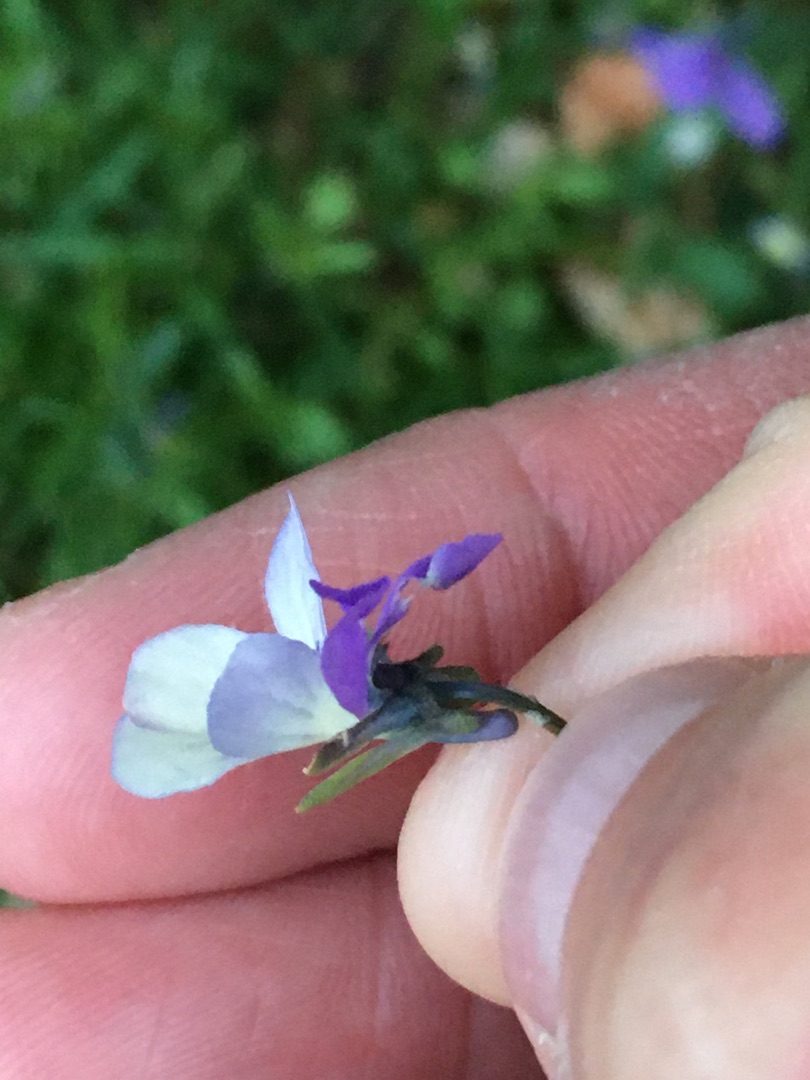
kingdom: Plantae
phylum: Tracheophyta
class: Magnoliopsida
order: Malpighiales
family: Violaceae
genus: Viola
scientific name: Viola tricolor
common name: Almindelig stedmoderblomst
